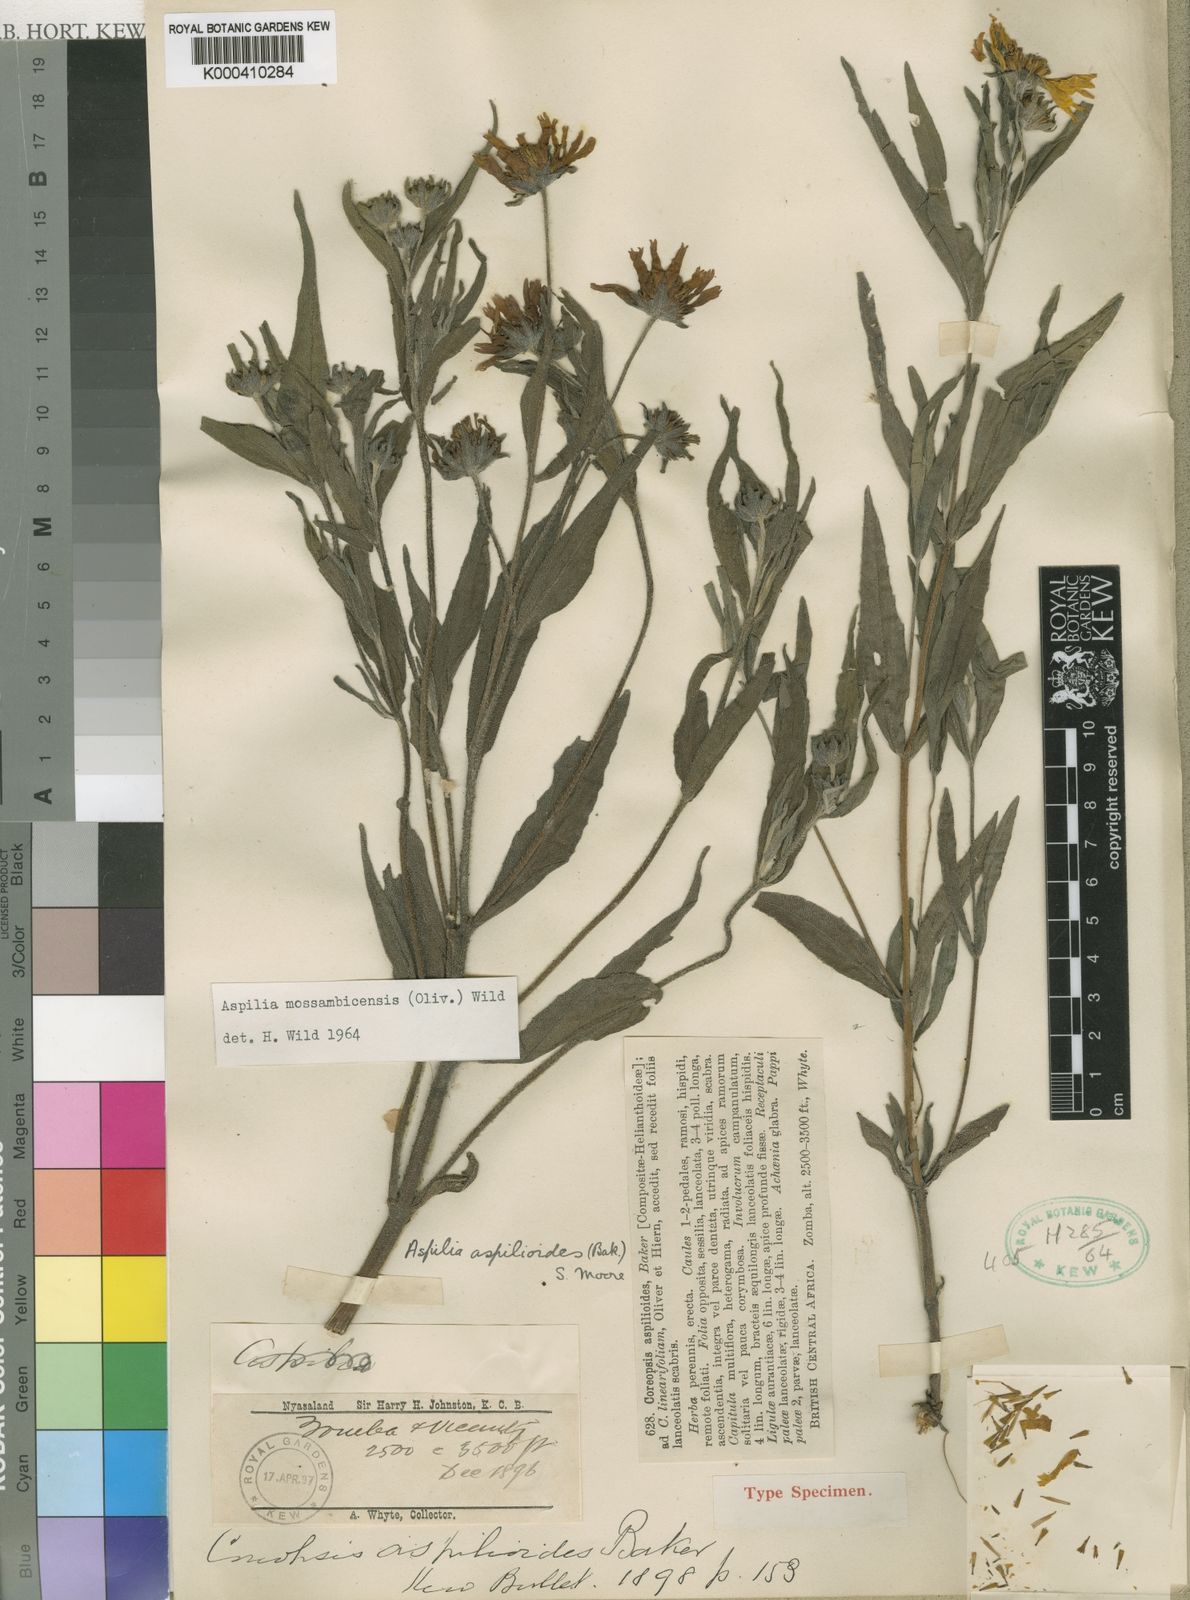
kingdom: Plantae
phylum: Tracheophyta
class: Magnoliopsida
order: Asterales
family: Asteraceae
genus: Aspilia
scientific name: Aspilia mossambicensis
